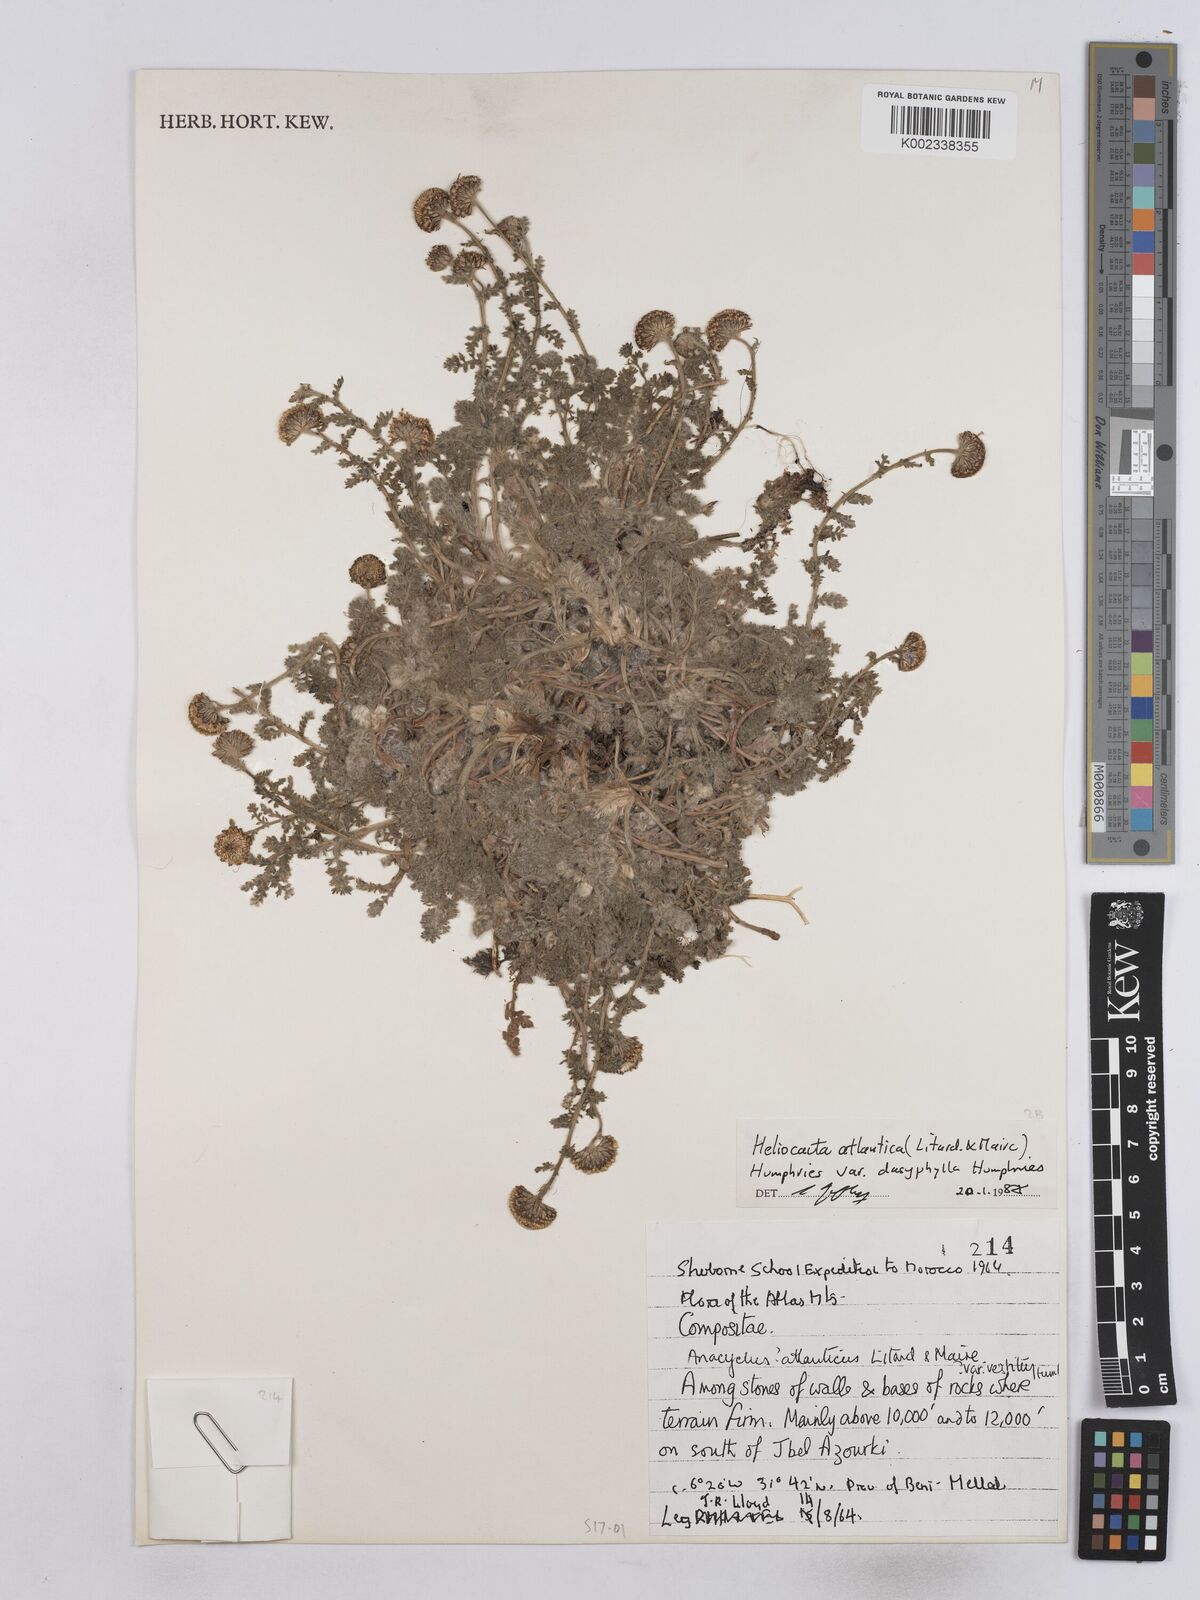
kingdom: Plantae
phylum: Tracheophyta
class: Magnoliopsida
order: Asterales
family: Asteraceae
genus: Heliocauta
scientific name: Heliocauta atlantica
